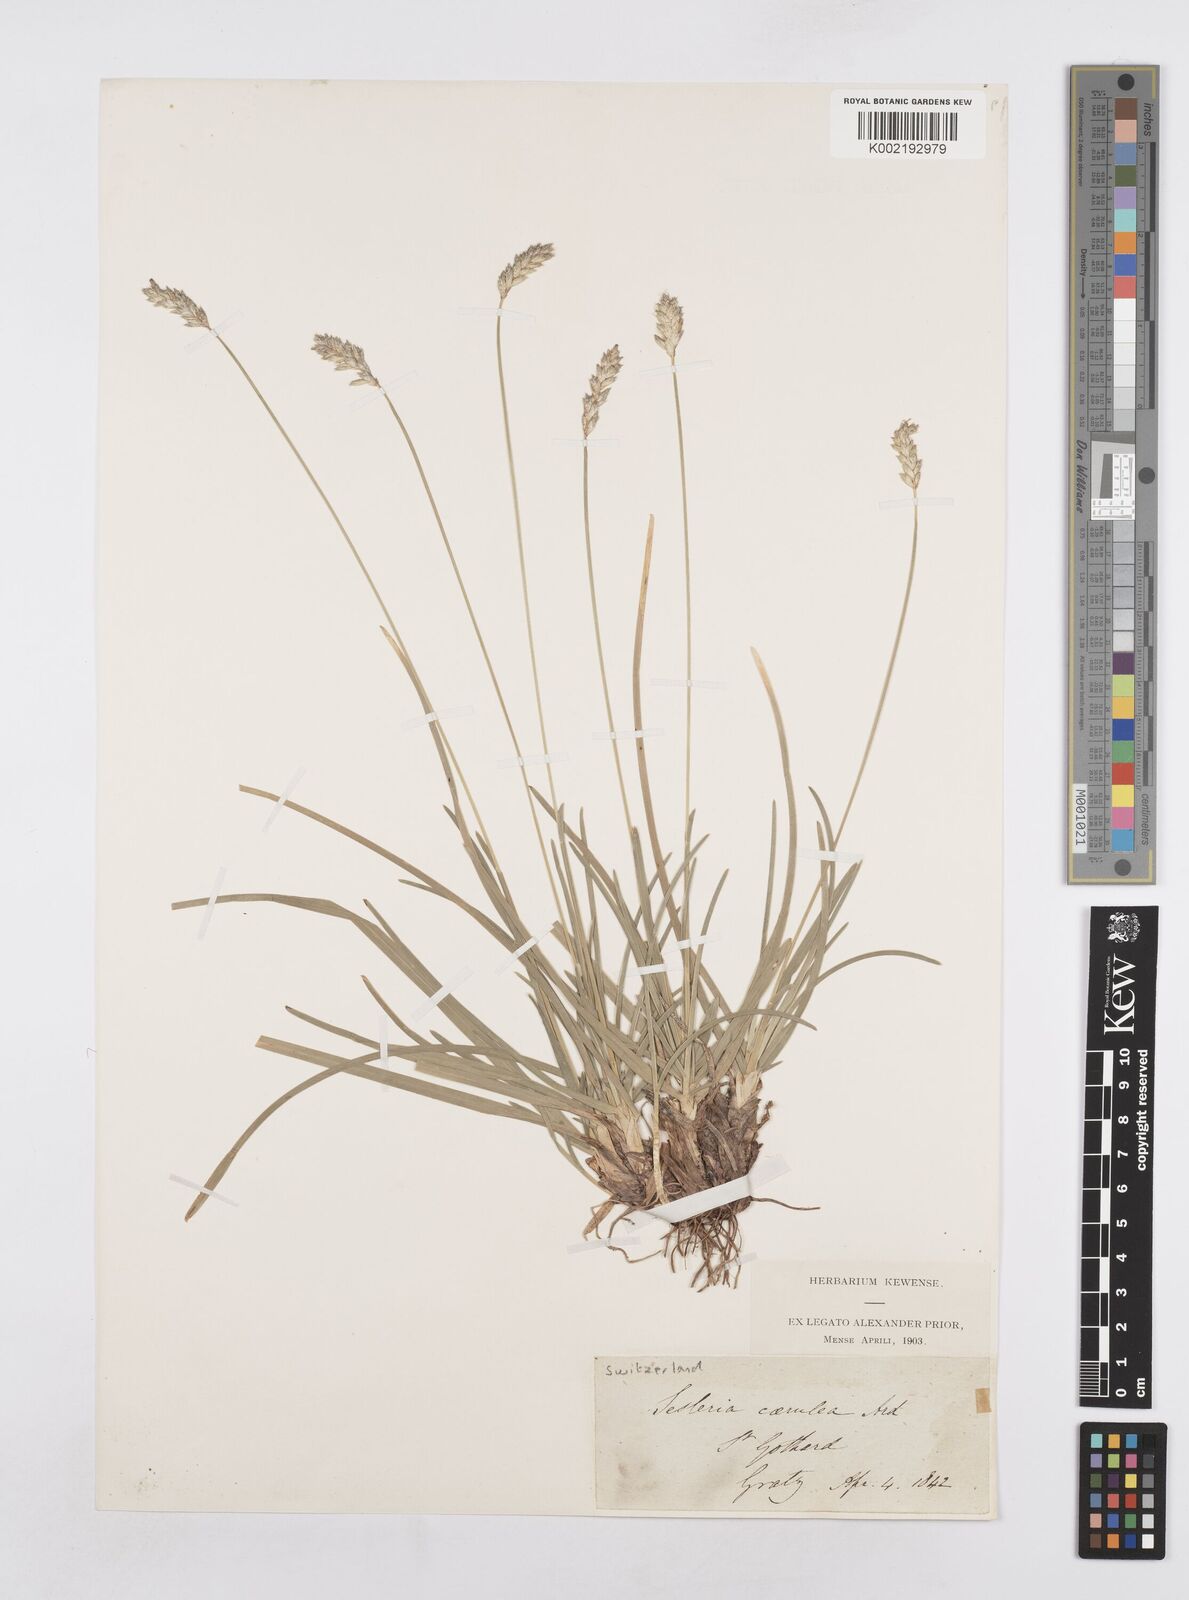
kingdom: Plantae
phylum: Tracheophyta
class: Liliopsida
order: Poales
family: Poaceae
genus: Sesleria
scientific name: Sesleria caerulea
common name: Blue moor-grass
